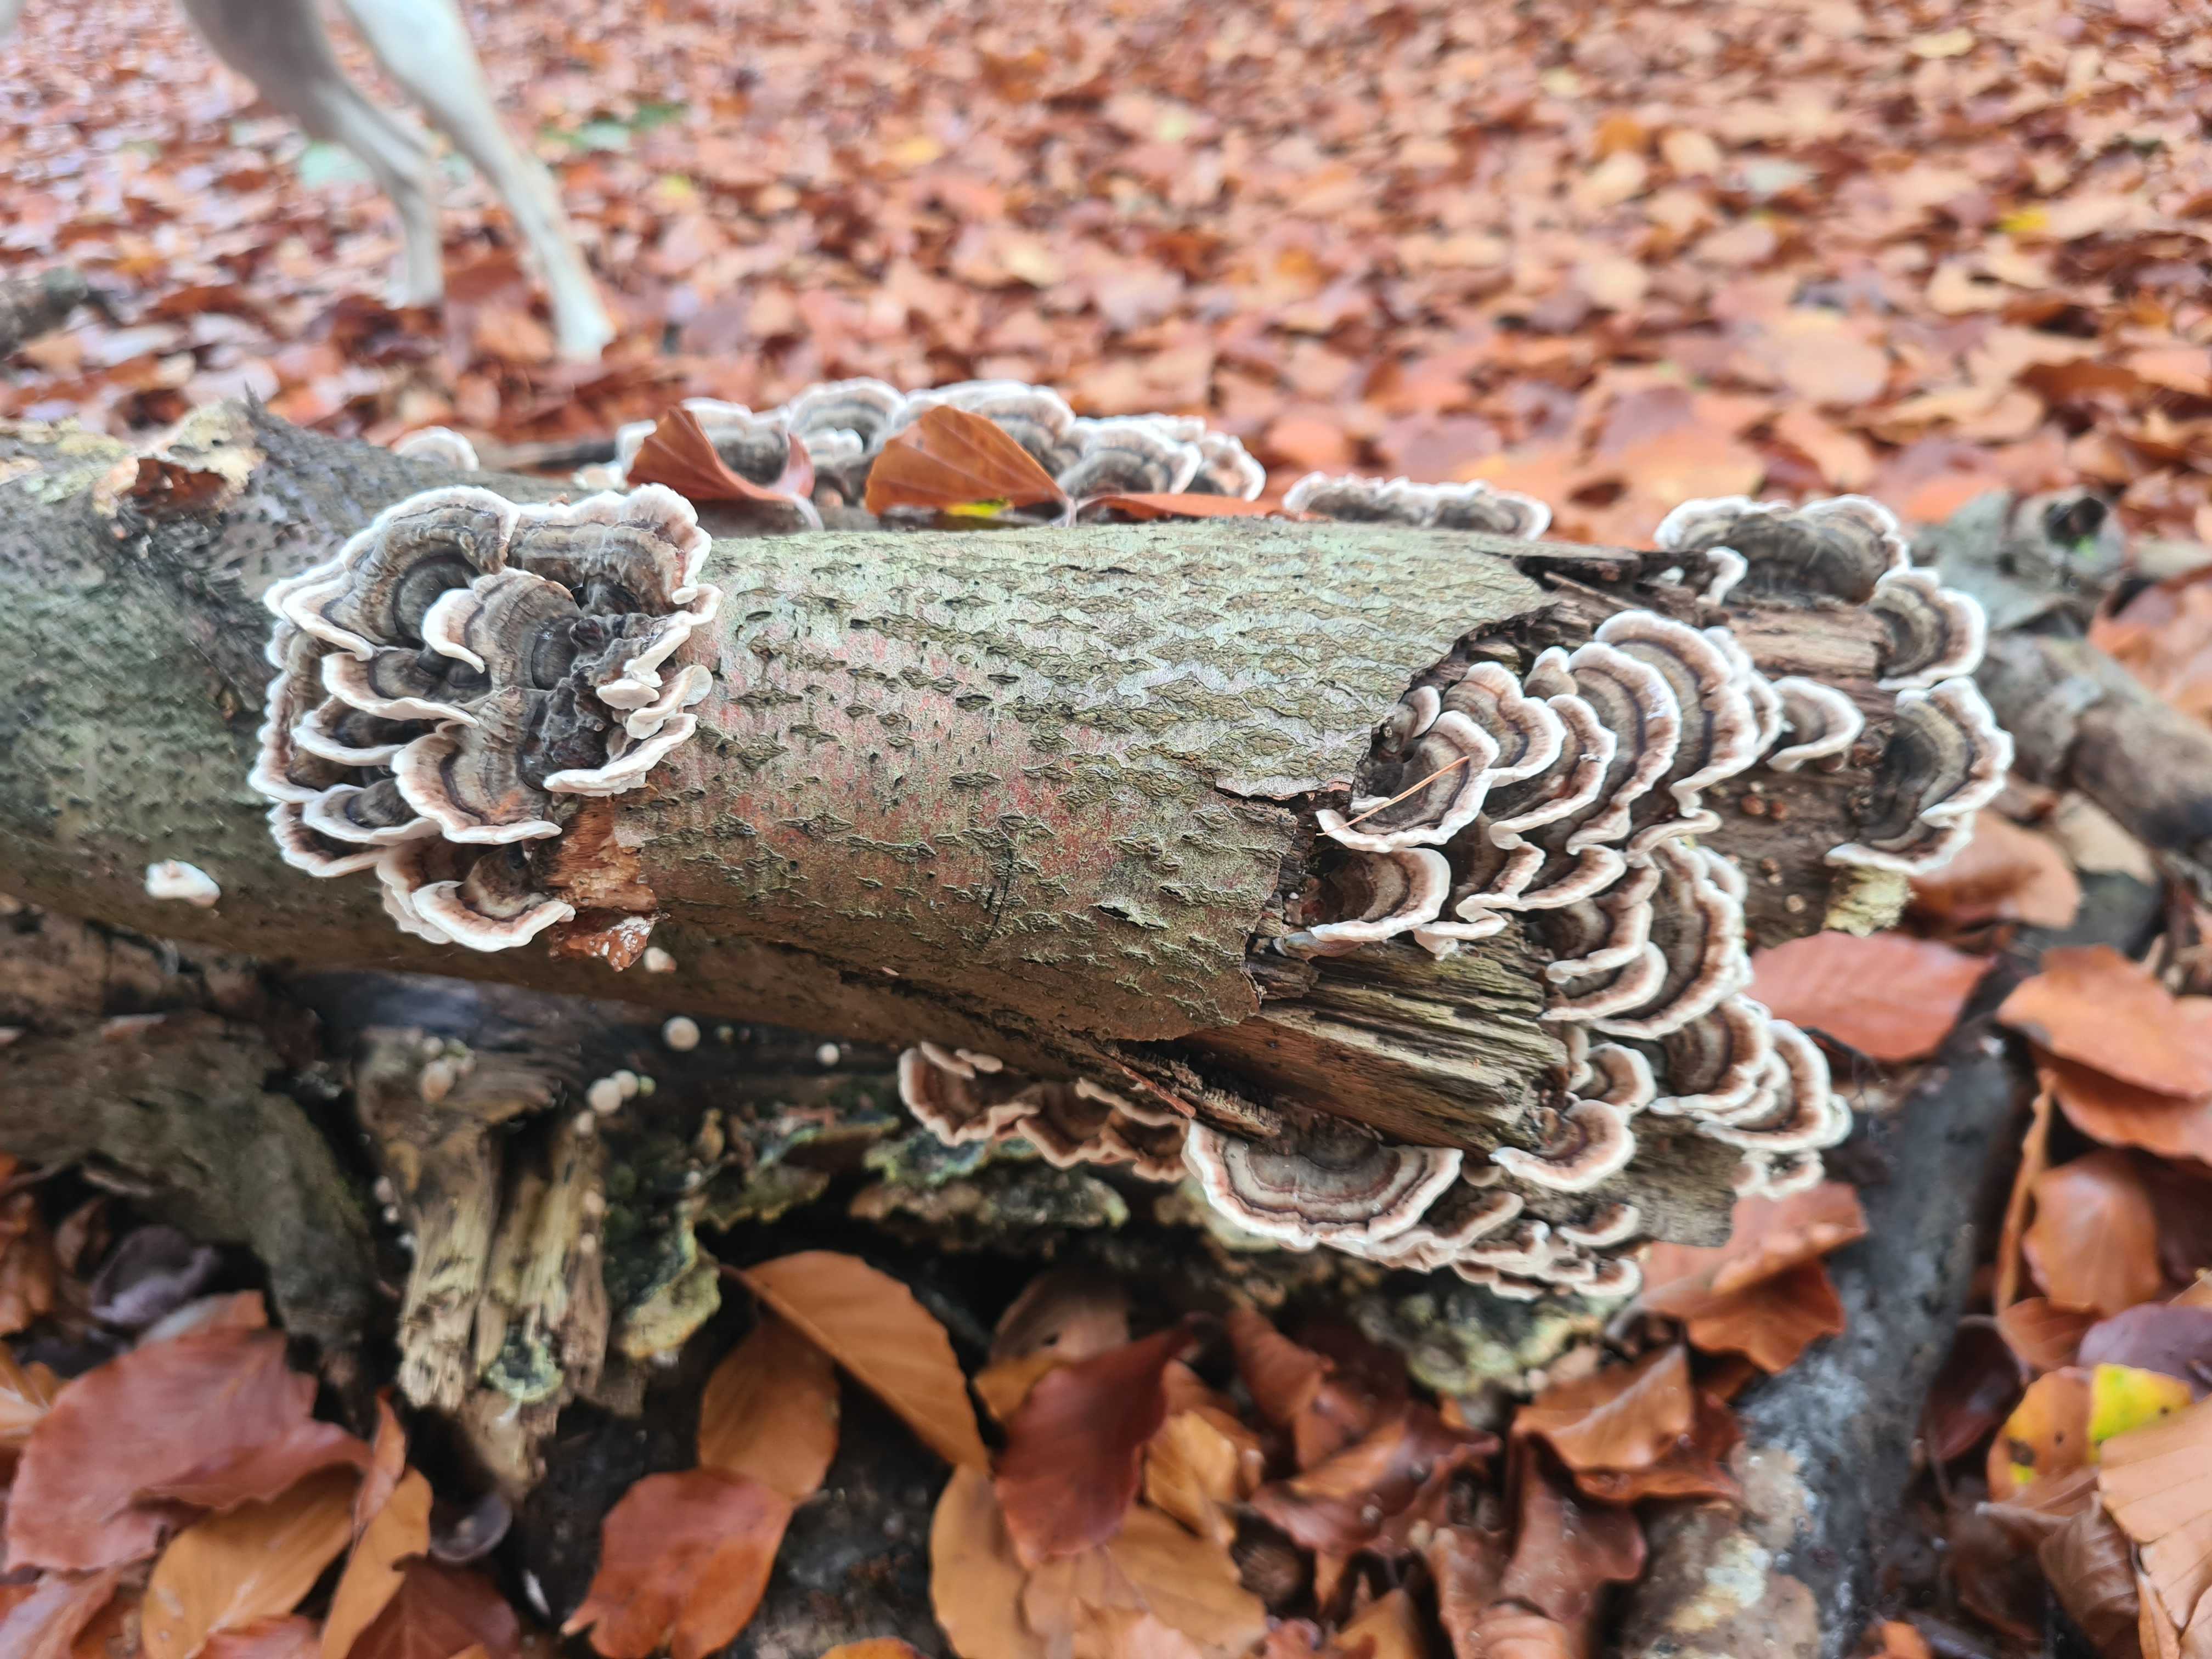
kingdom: Fungi
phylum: Basidiomycota
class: Agaricomycetes
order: Polyporales
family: Polyporaceae
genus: Trametes
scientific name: Trametes versicolor
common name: broget læderporesvamp
